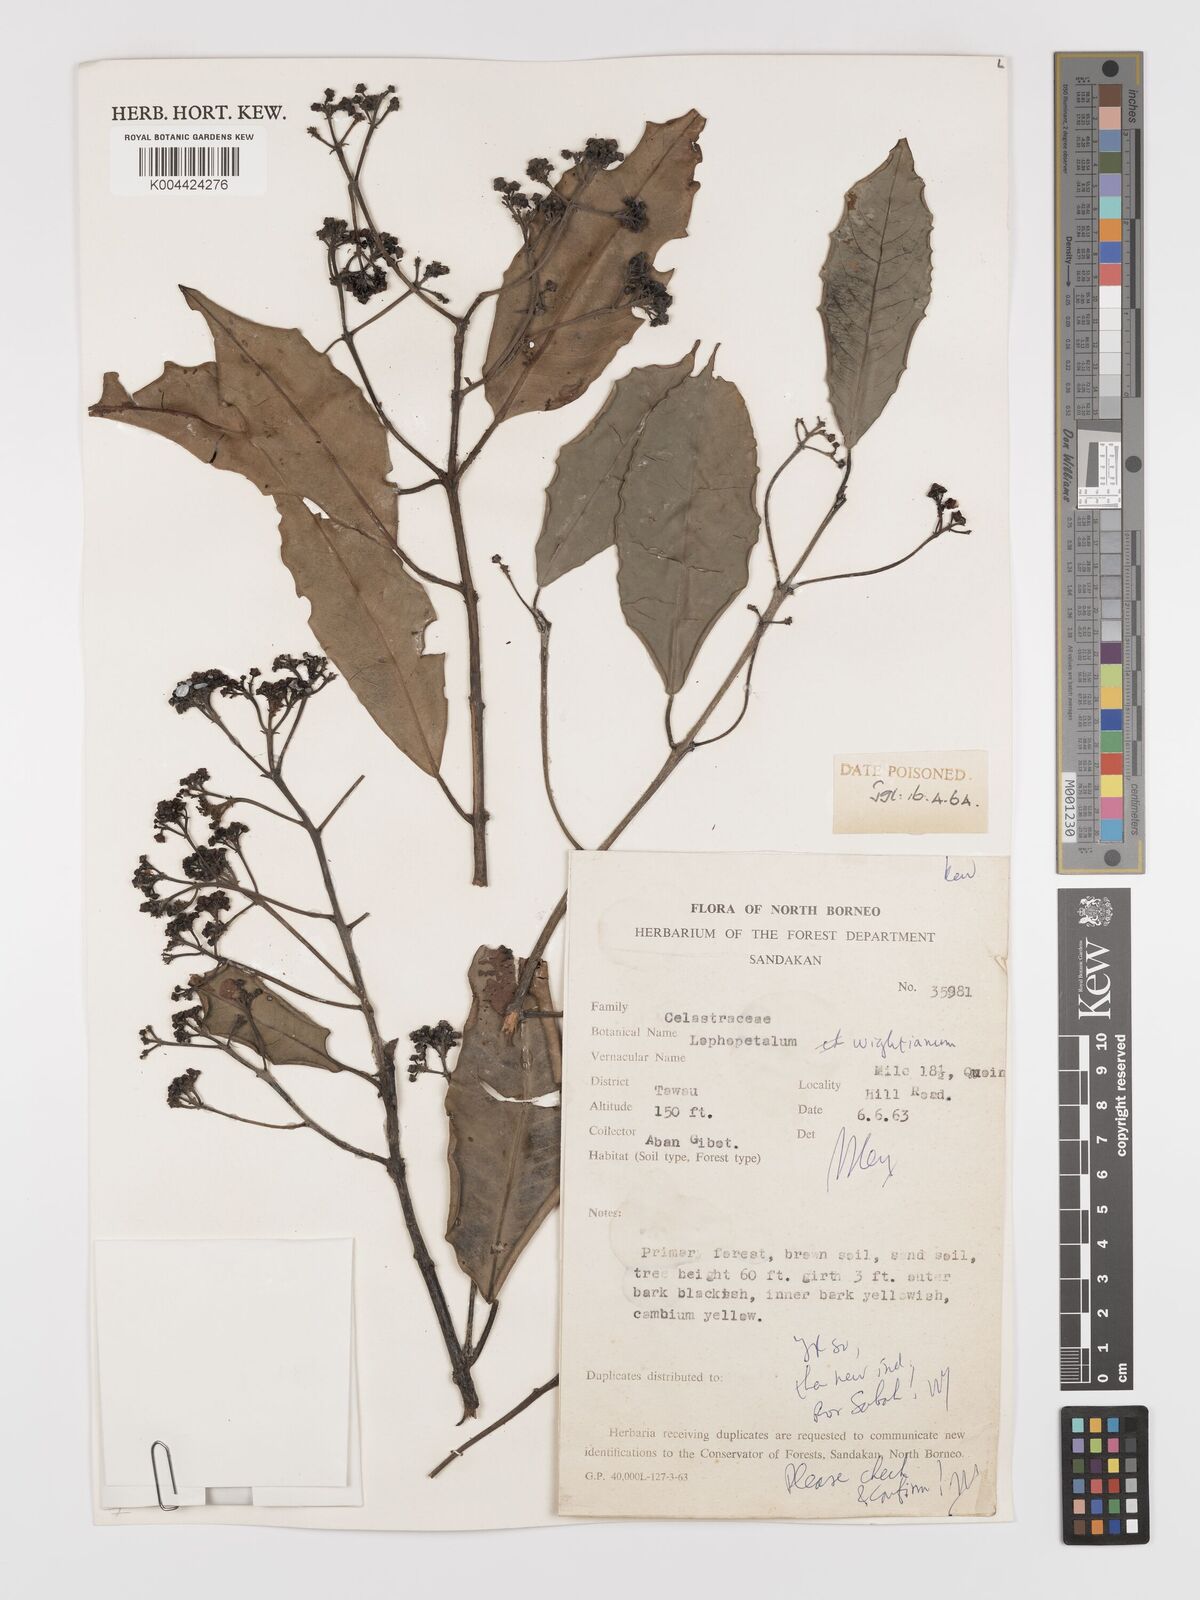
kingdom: Plantae
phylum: Tracheophyta
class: Magnoliopsida
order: Celastrales
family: Celastraceae
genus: Lophopetalum
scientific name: Lophopetalum wightianum
